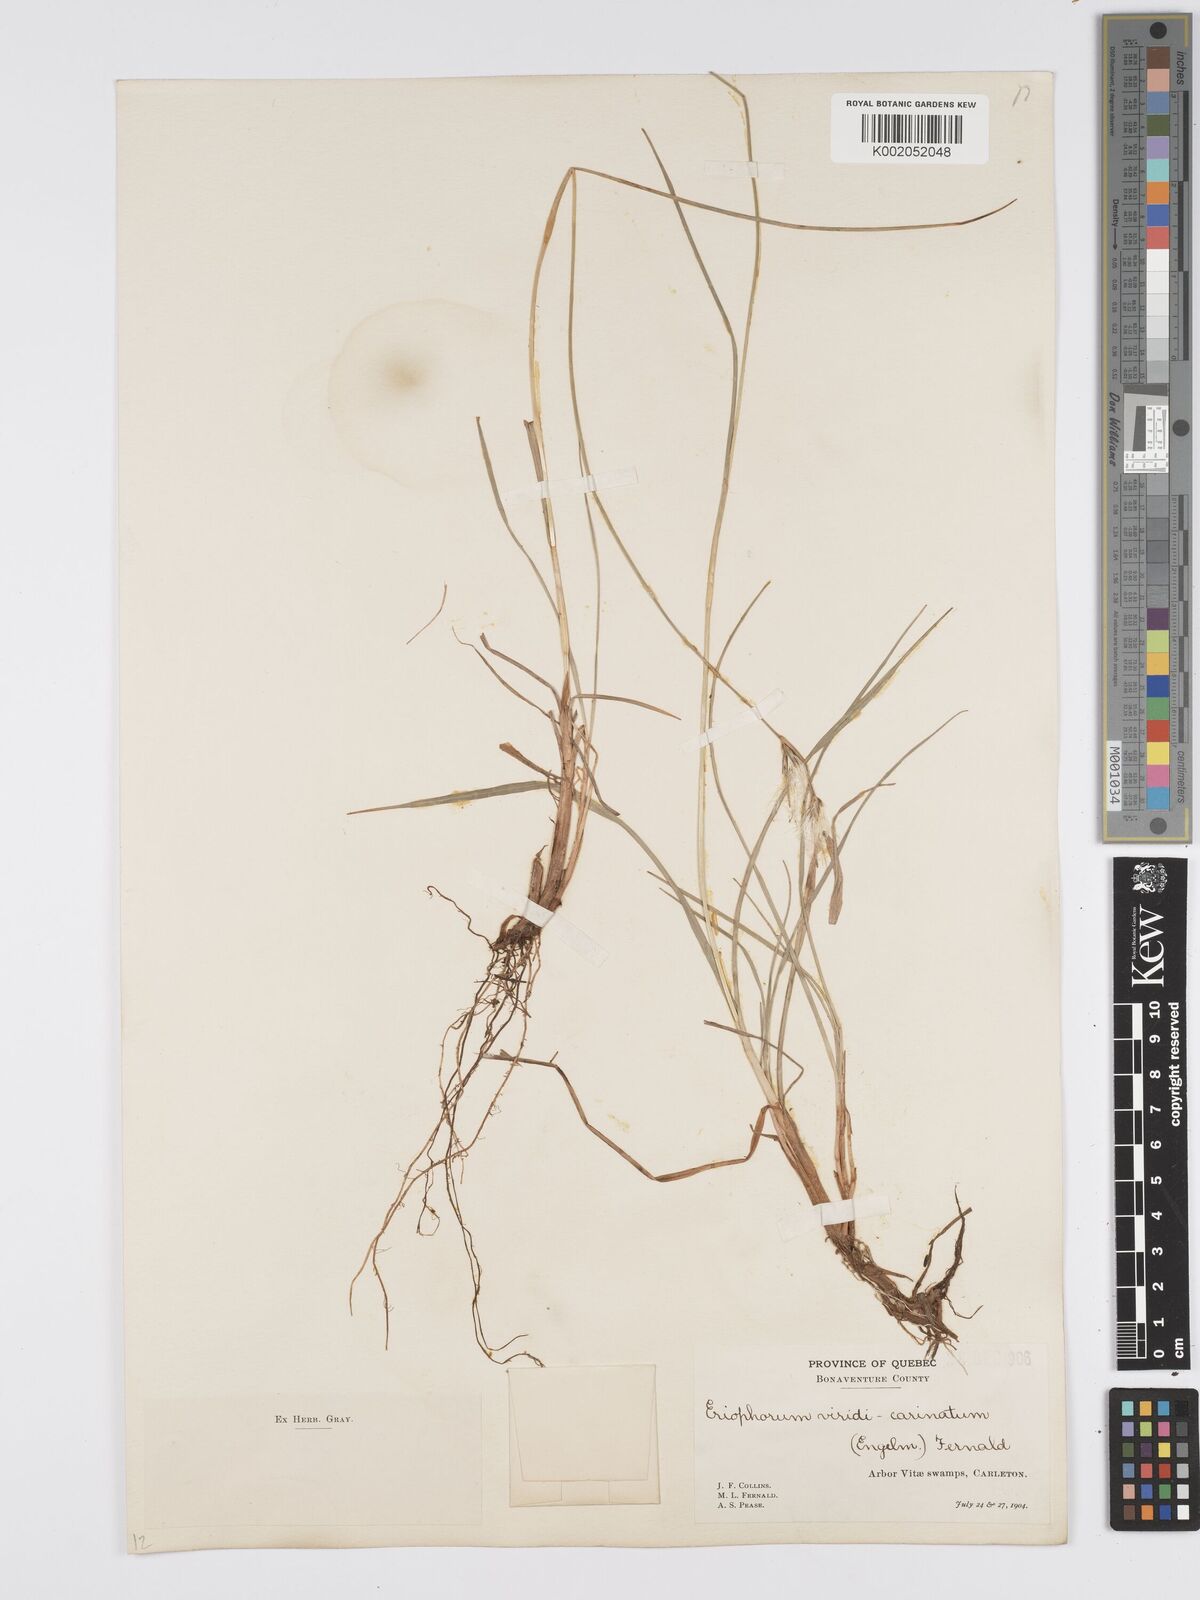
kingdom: Plantae
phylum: Tracheophyta
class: Liliopsida
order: Poales
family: Cyperaceae
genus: Eriophorum
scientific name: Eriophorum viridicarinatum
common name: Green-keeled cottongrass
